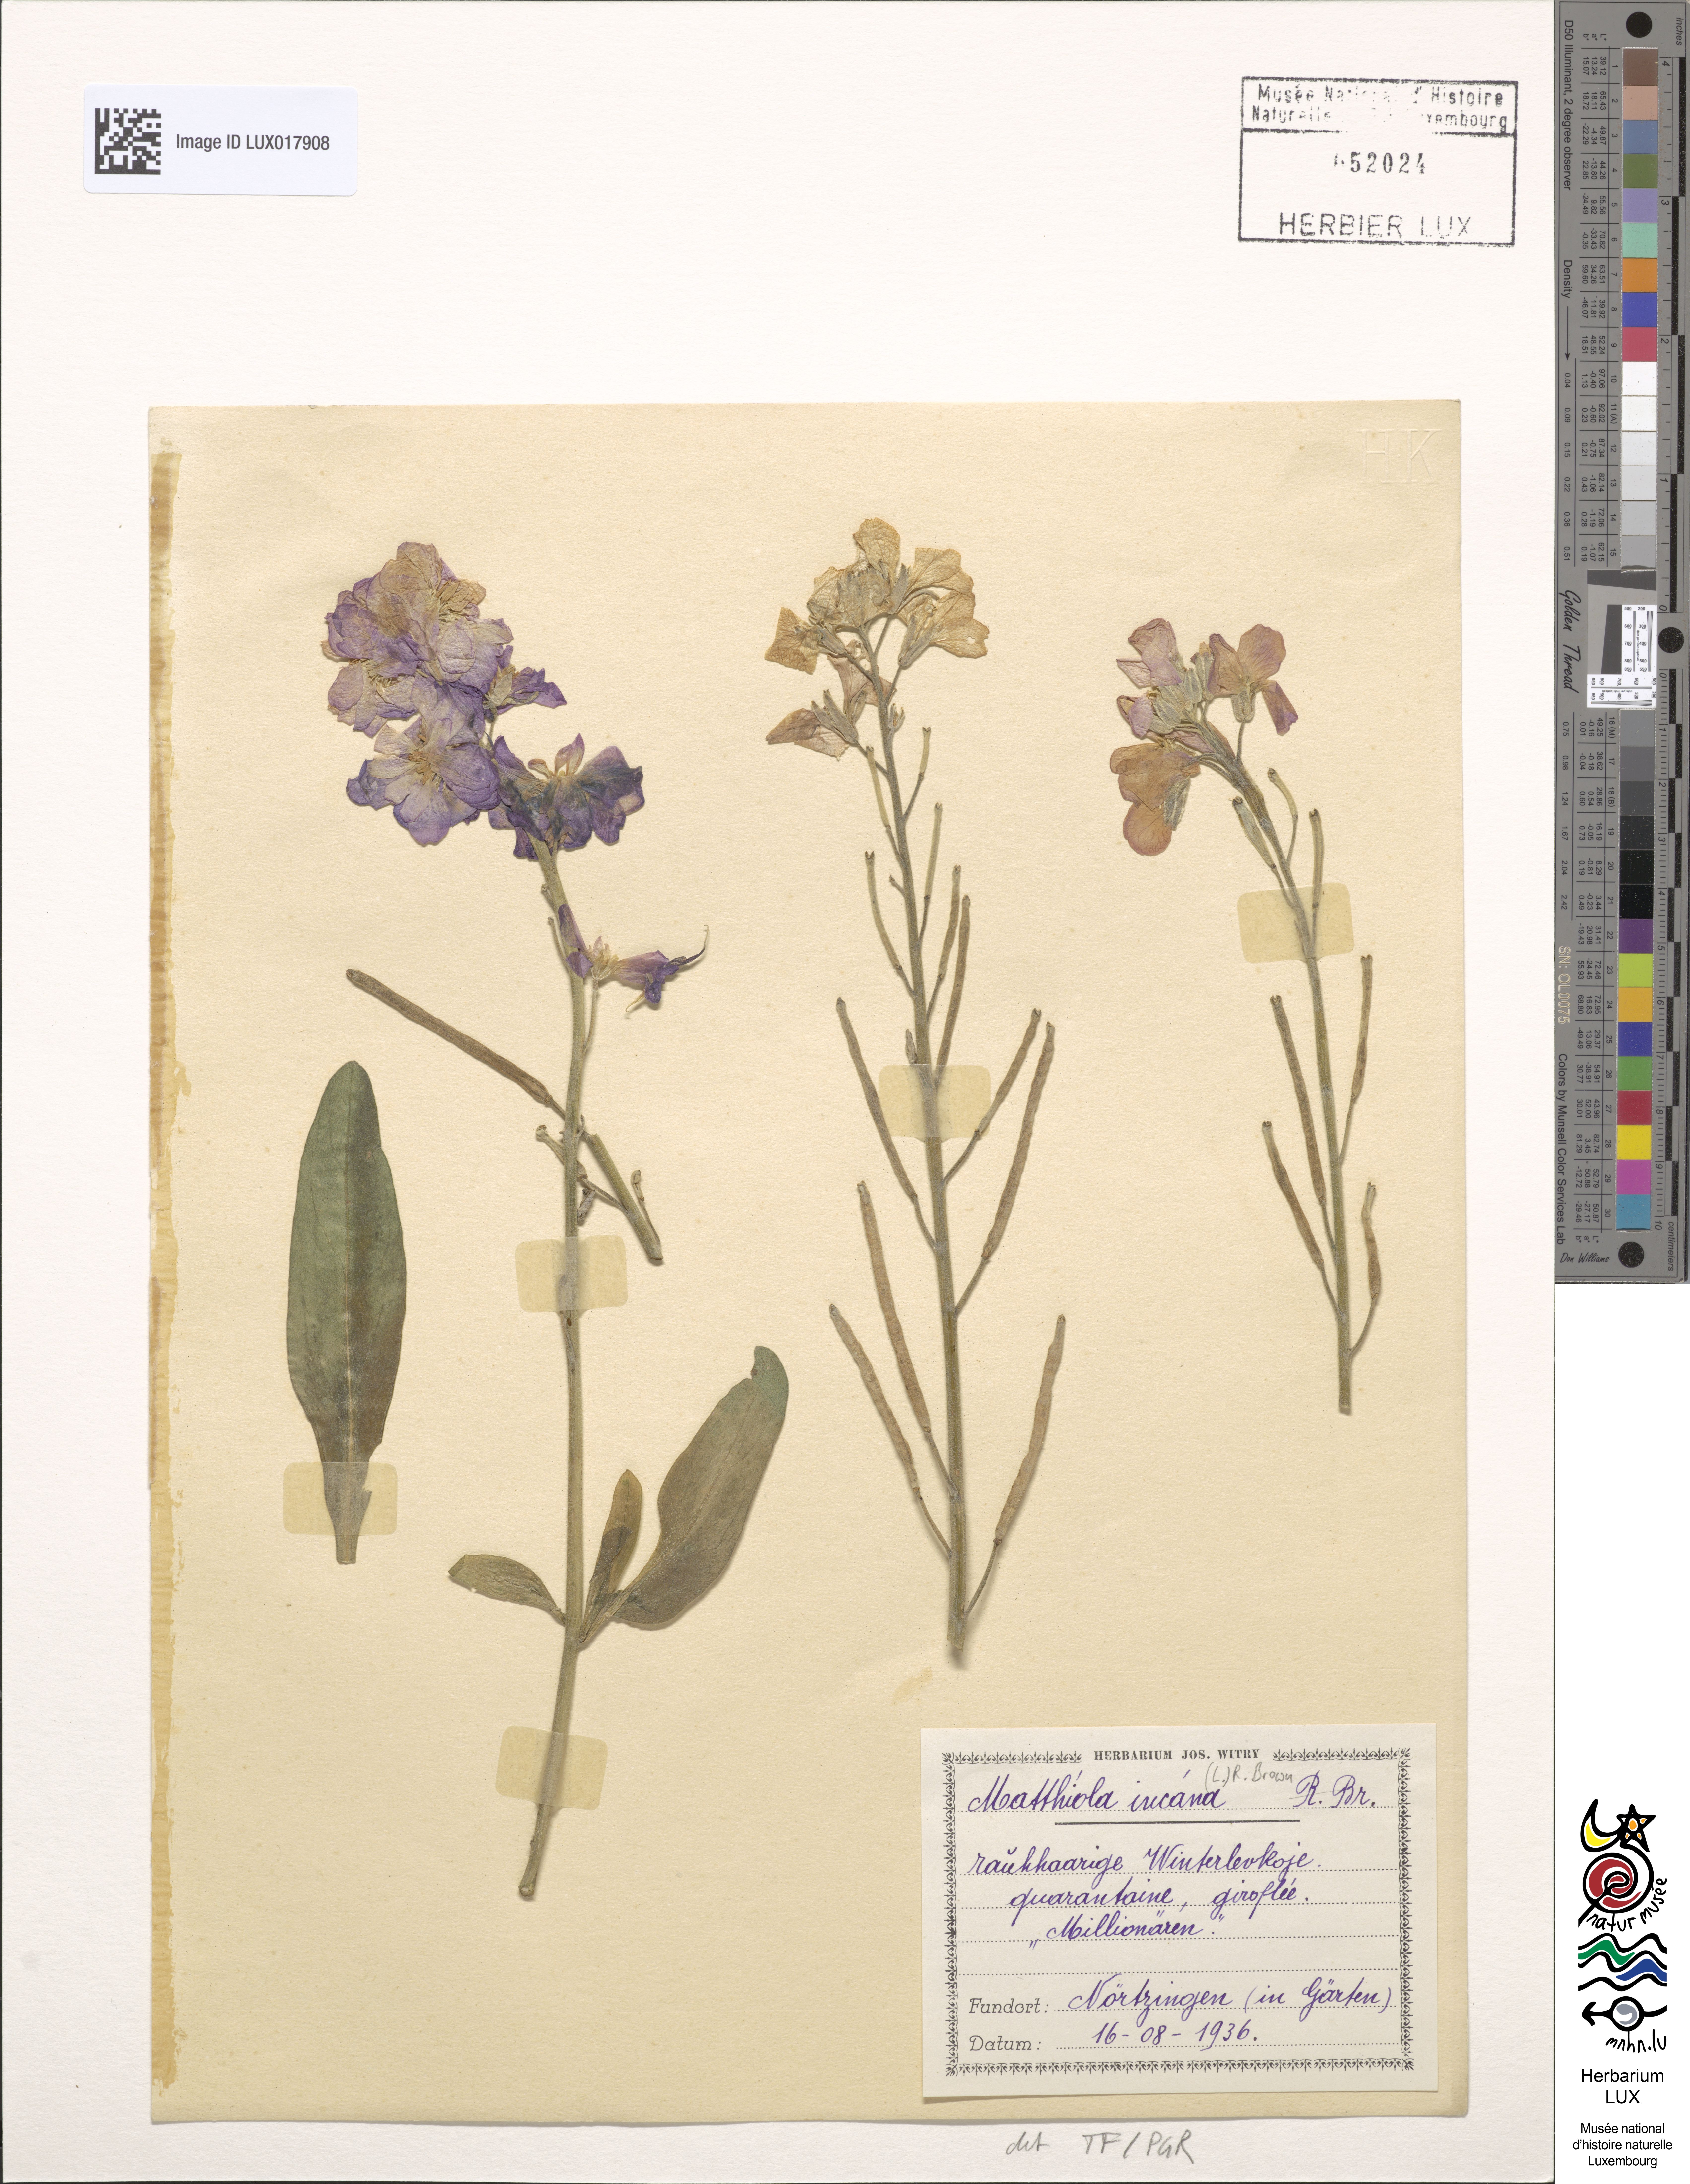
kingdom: Plantae
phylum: Tracheophyta
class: Magnoliopsida
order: Brassicales
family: Brassicaceae
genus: Matthiola
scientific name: Matthiola incana
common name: Hoary stock
